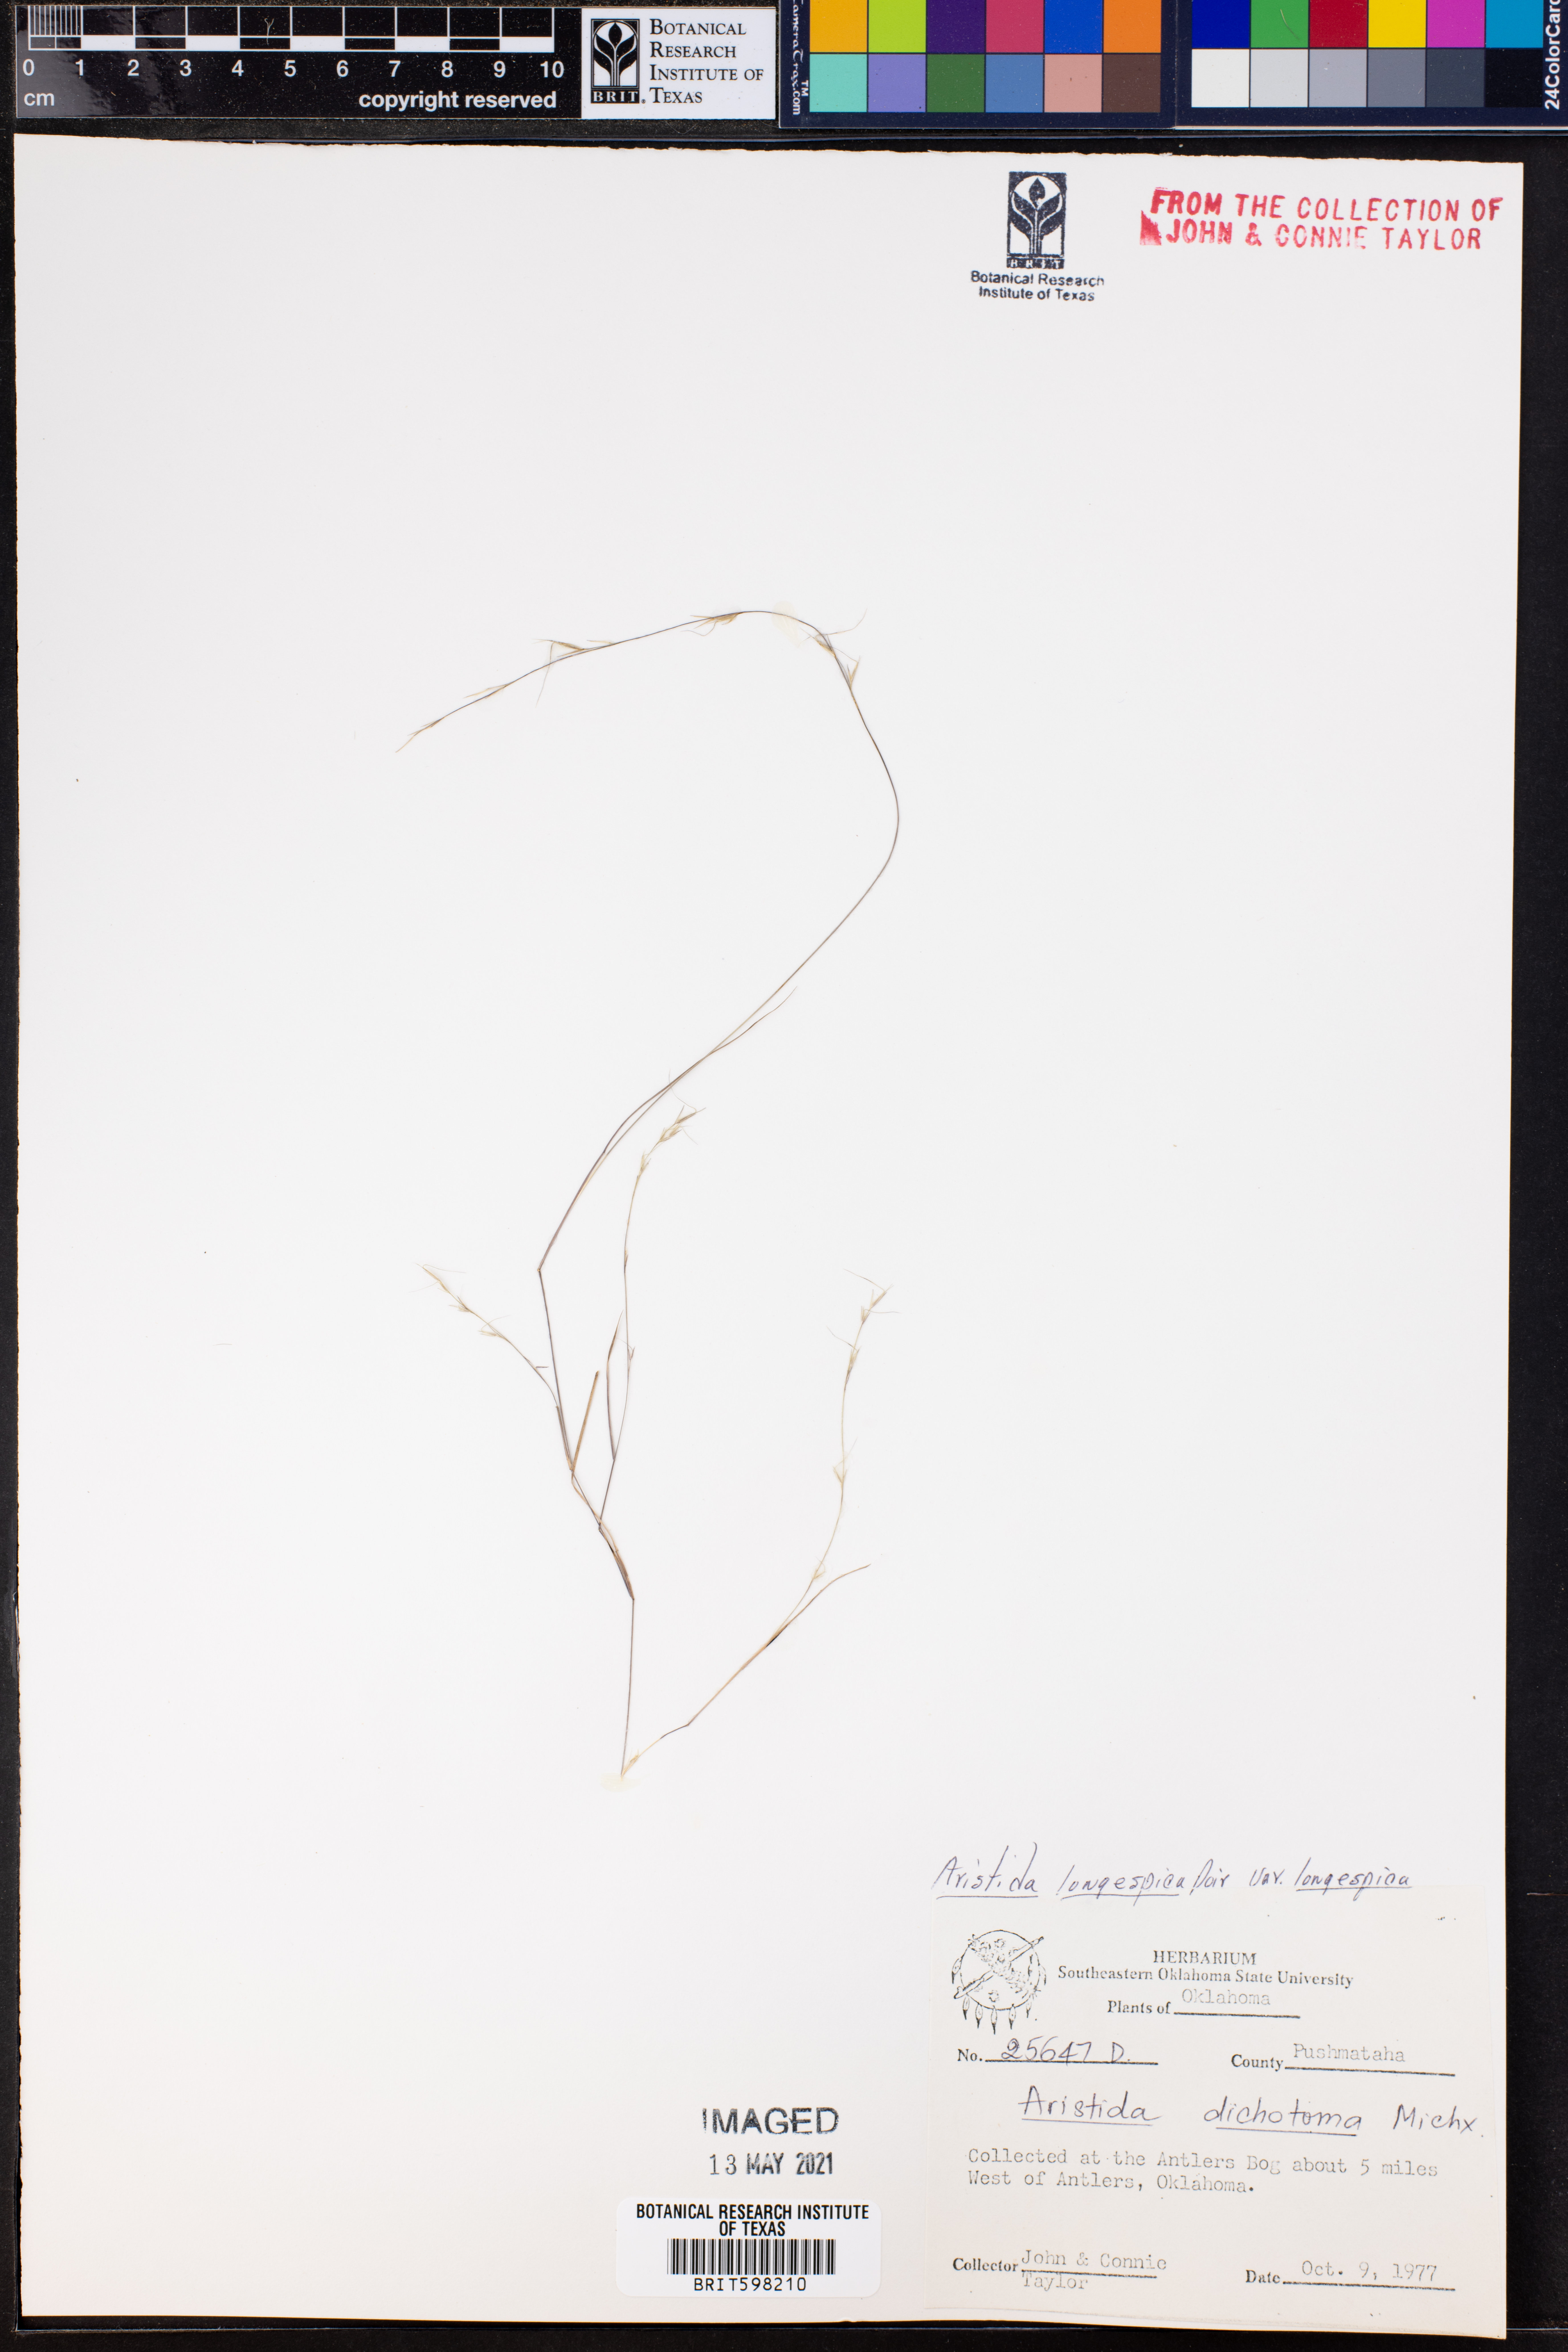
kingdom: Plantae
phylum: Tracheophyta
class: Liliopsida
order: Poales
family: Poaceae
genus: Aristida
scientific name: Aristida longespica
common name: Long-spiked triple-awned grass
